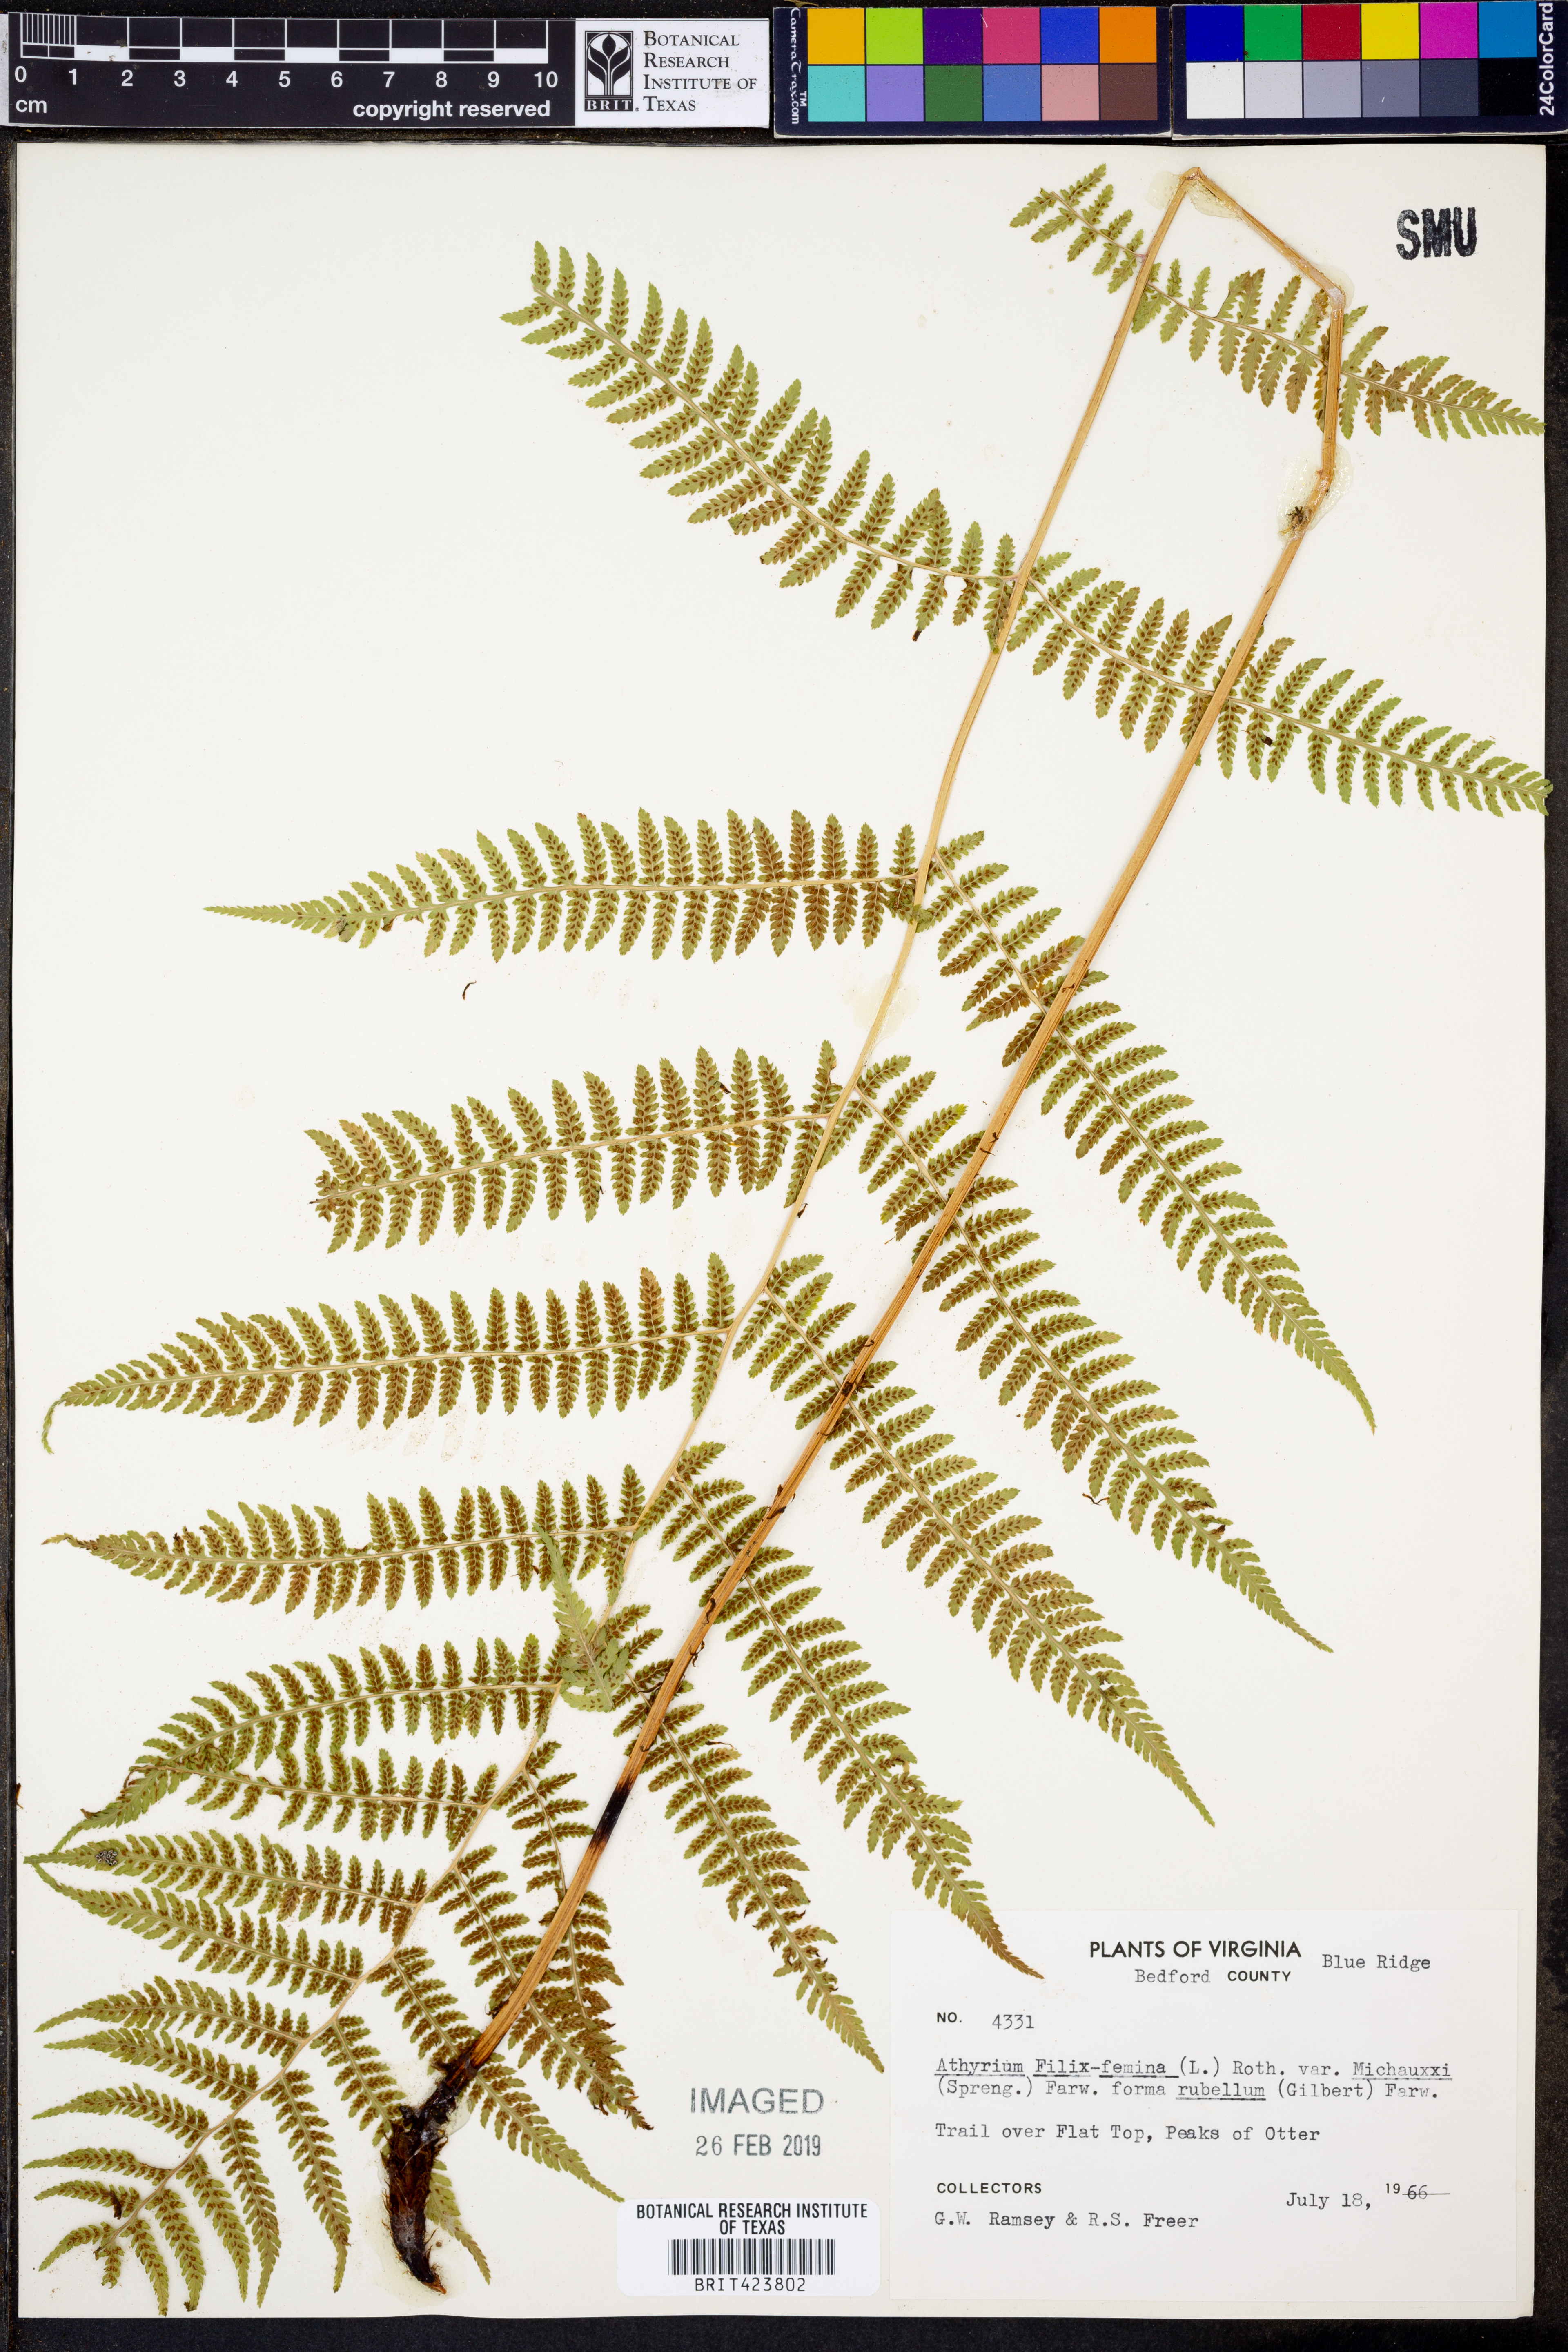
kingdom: Plantae
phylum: Tracheophyta
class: Polypodiopsida
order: Polypodiales
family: Athyriaceae
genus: Athyrium
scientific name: Athyrium angustum
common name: Northern lady fern
